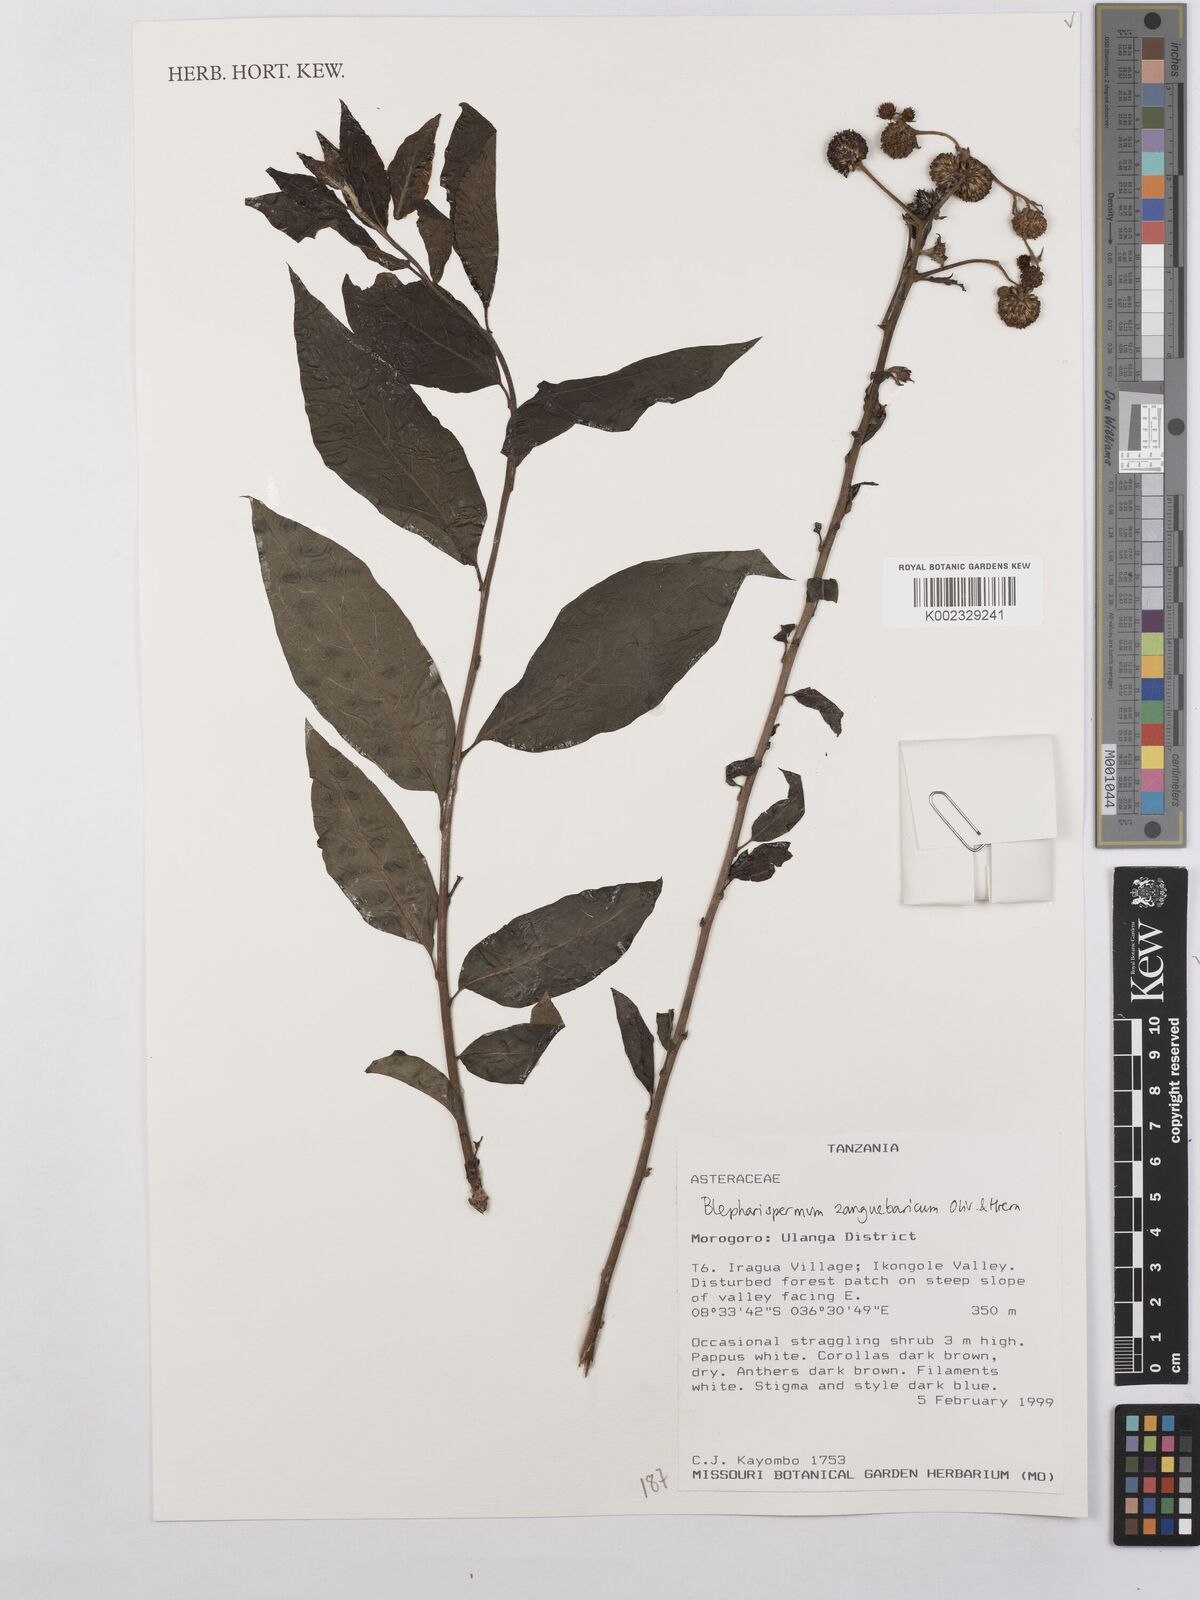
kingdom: Plantae
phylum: Tracheophyta
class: Magnoliopsida
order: Asterales
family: Asteraceae
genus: Blepharispermum
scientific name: Blepharispermum zanguebaricum
